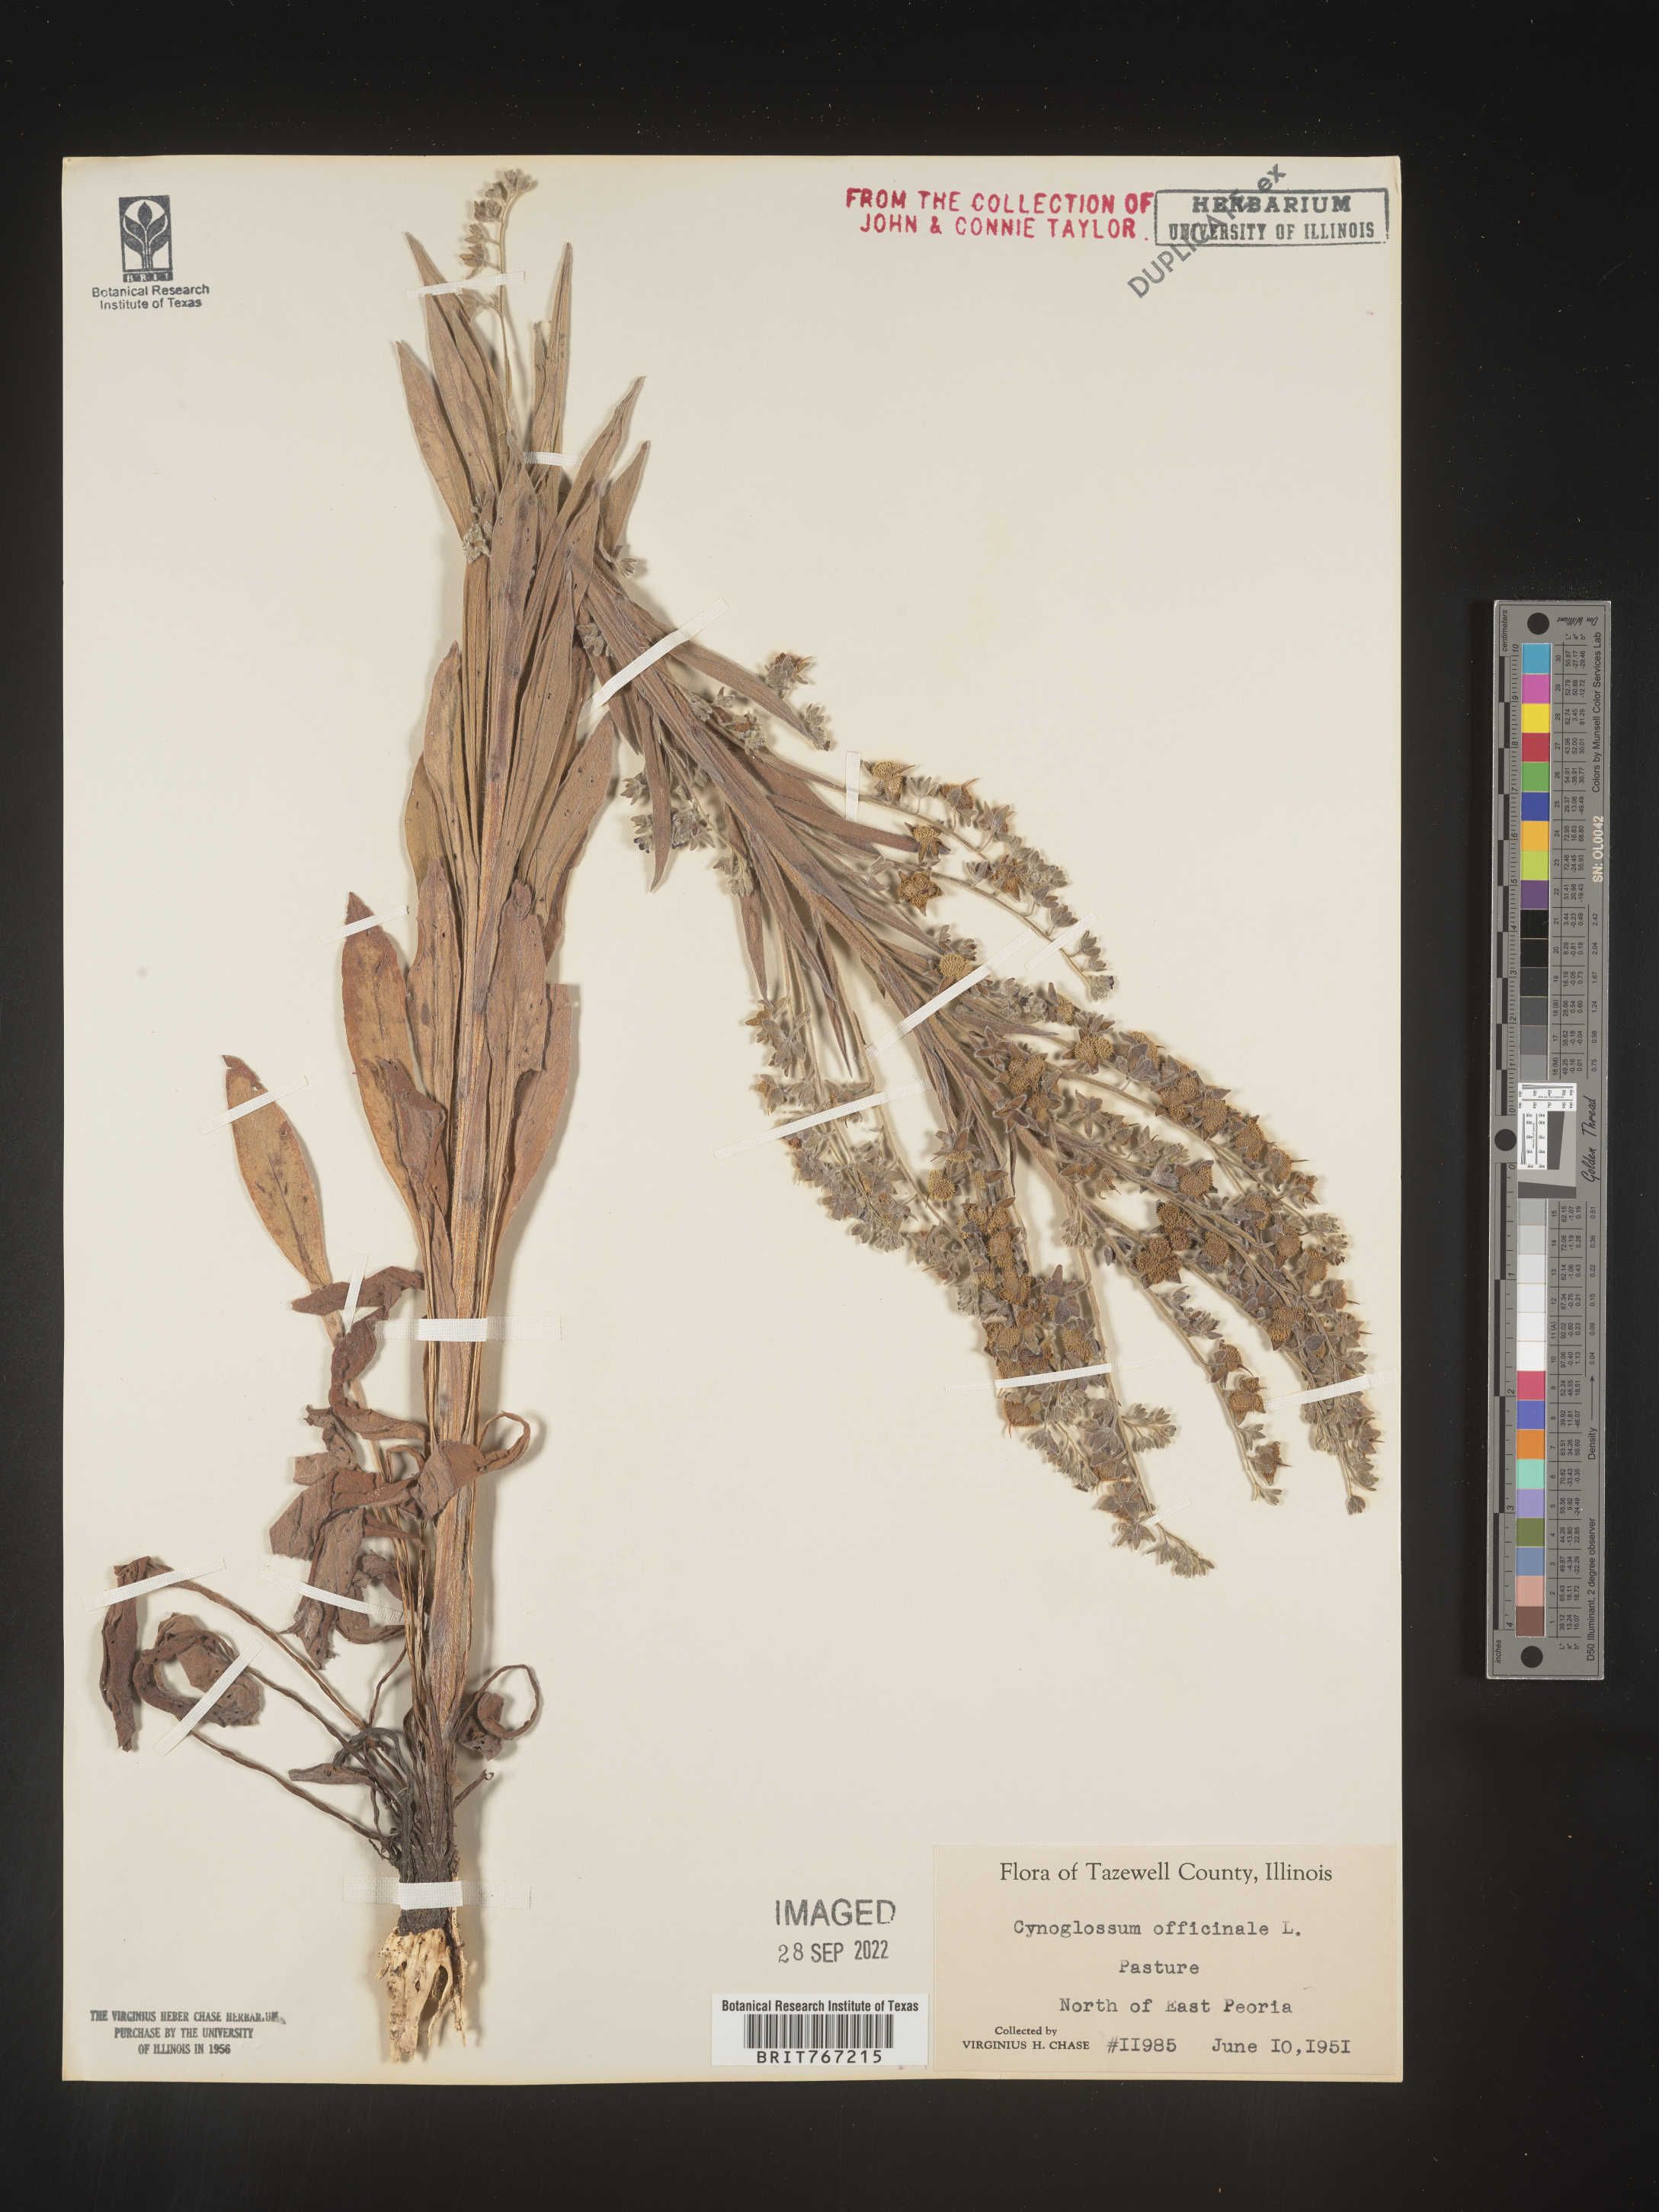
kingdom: Plantae
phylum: Tracheophyta
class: Magnoliopsida
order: Boraginales
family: Boraginaceae
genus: Cynoglossum
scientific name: Cynoglossum officinale
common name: Hound's-tongue
